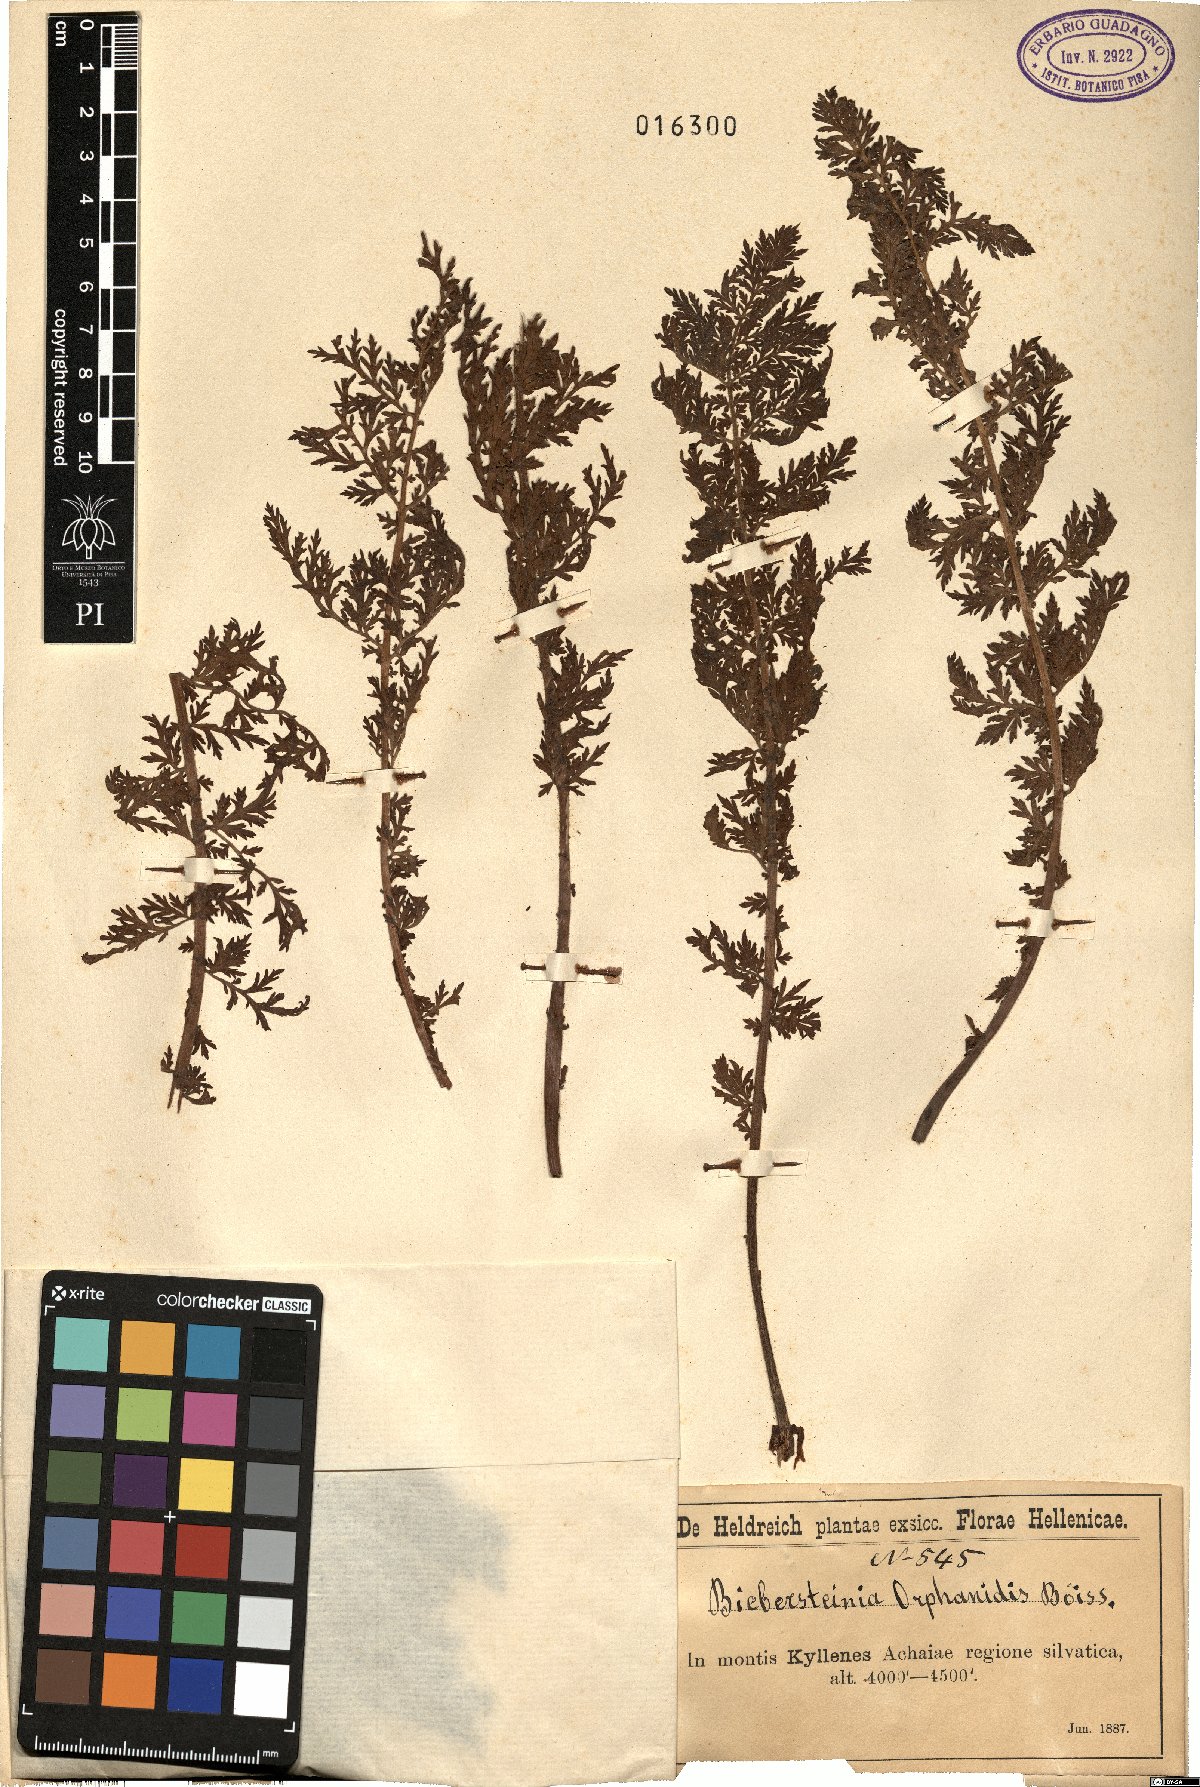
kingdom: Plantae
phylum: Tracheophyta
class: Magnoliopsida
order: Sapindales
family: Biebersteiniaceae
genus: Biebersteinia
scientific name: Biebersteinia orphanidis
